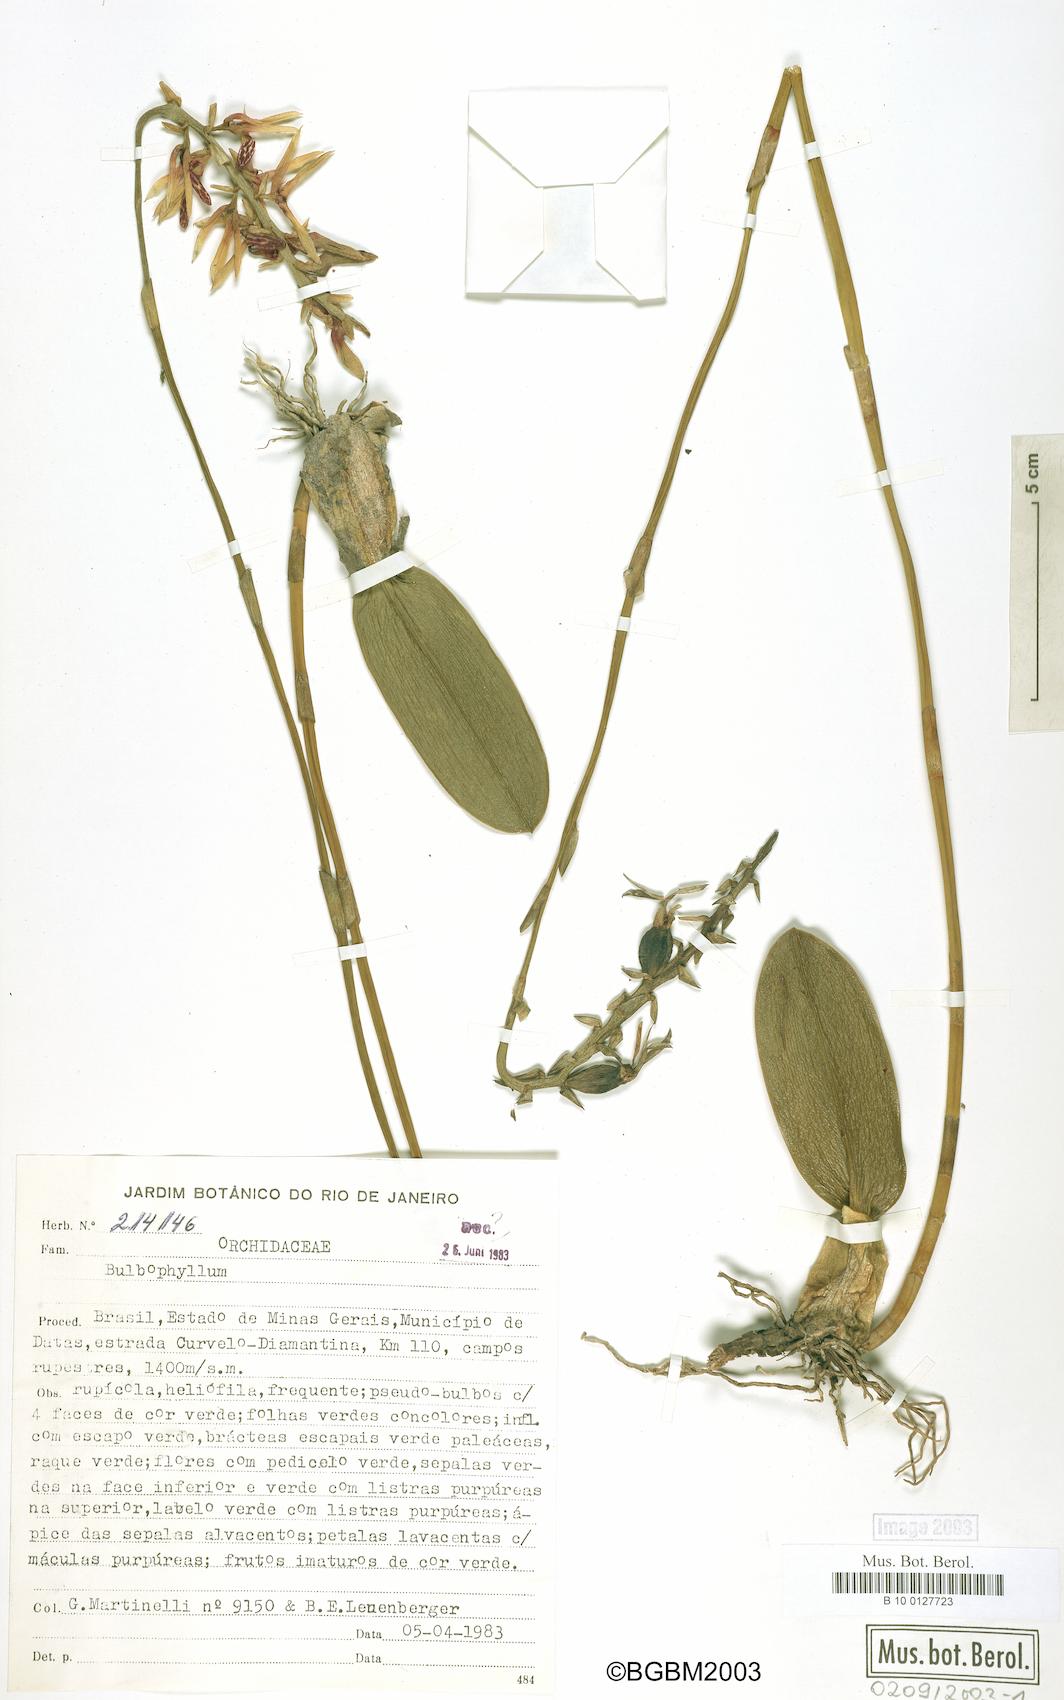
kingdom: Plantae
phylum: Tracheophyta
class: Liliopsida
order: Asparagales
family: Orchidaceae
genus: Bulbophyllum
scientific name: Bulbophyllum
